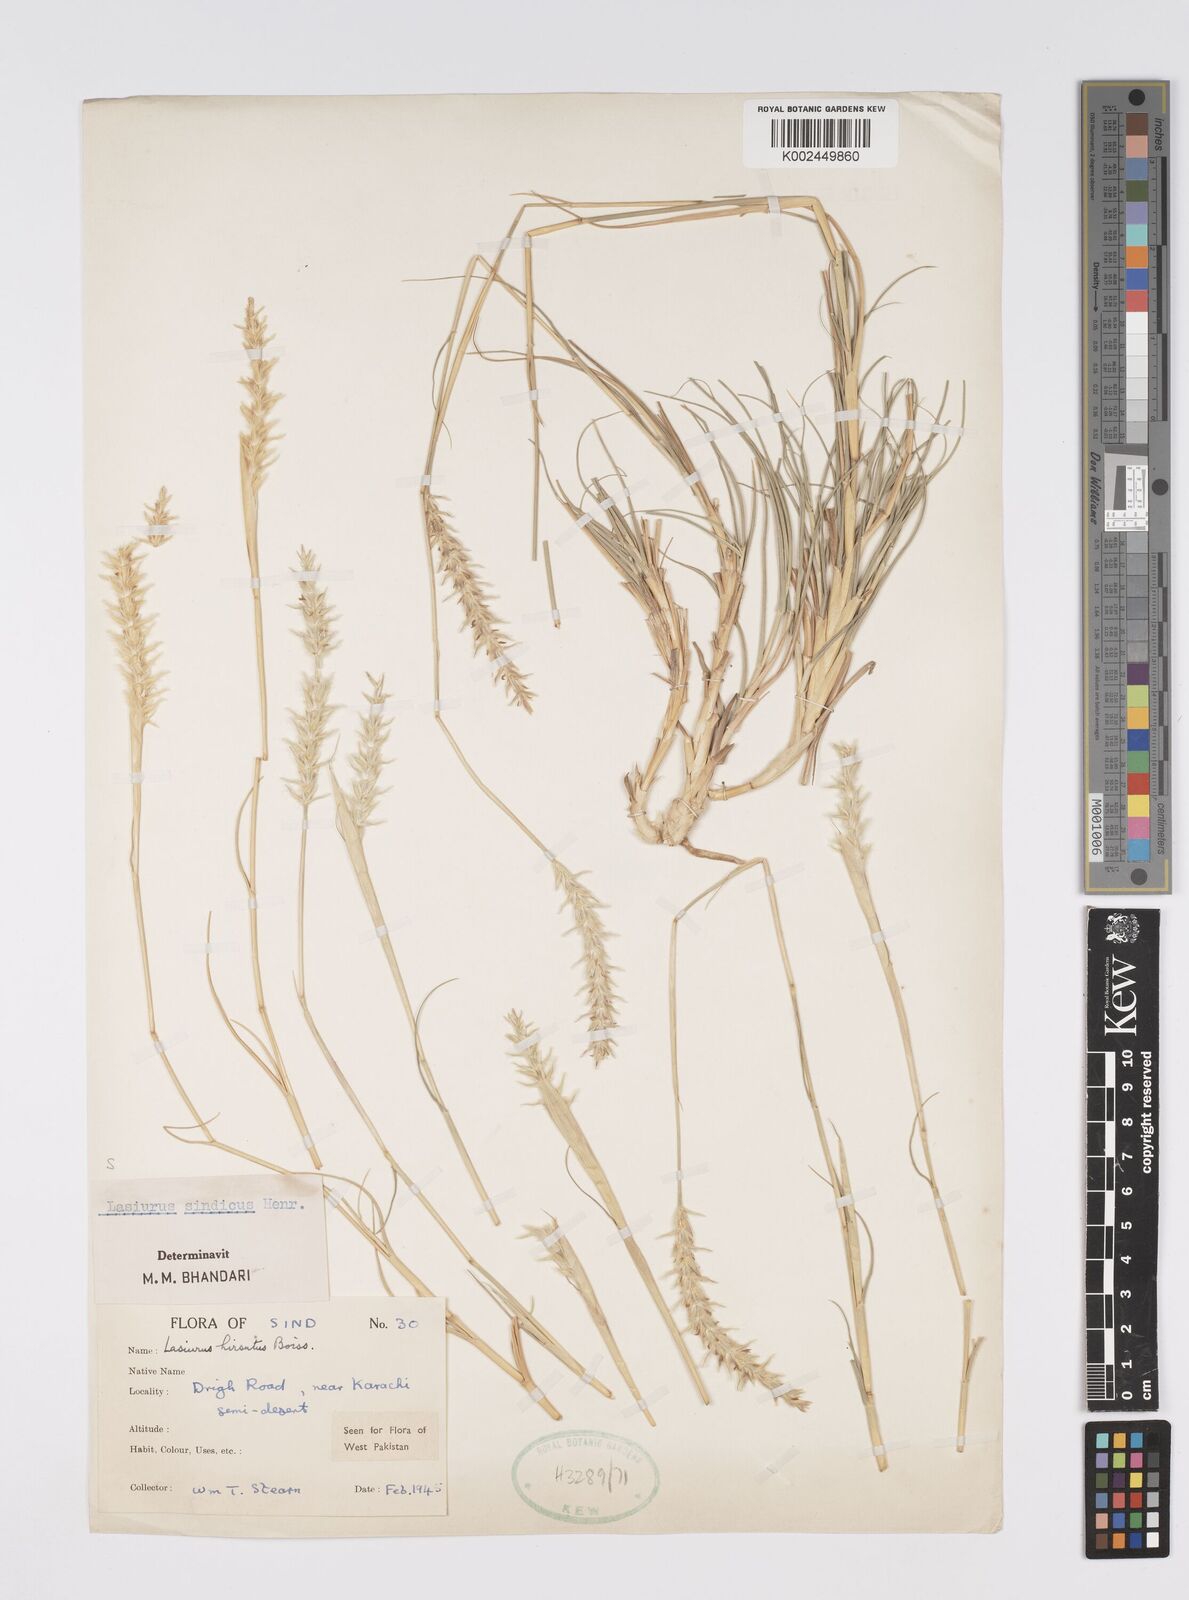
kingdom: Plantae
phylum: Tracheophyta
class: Liliopsida
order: Poales
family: Poaceae
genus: Lasiurus
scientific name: Lasiurus scindicus
